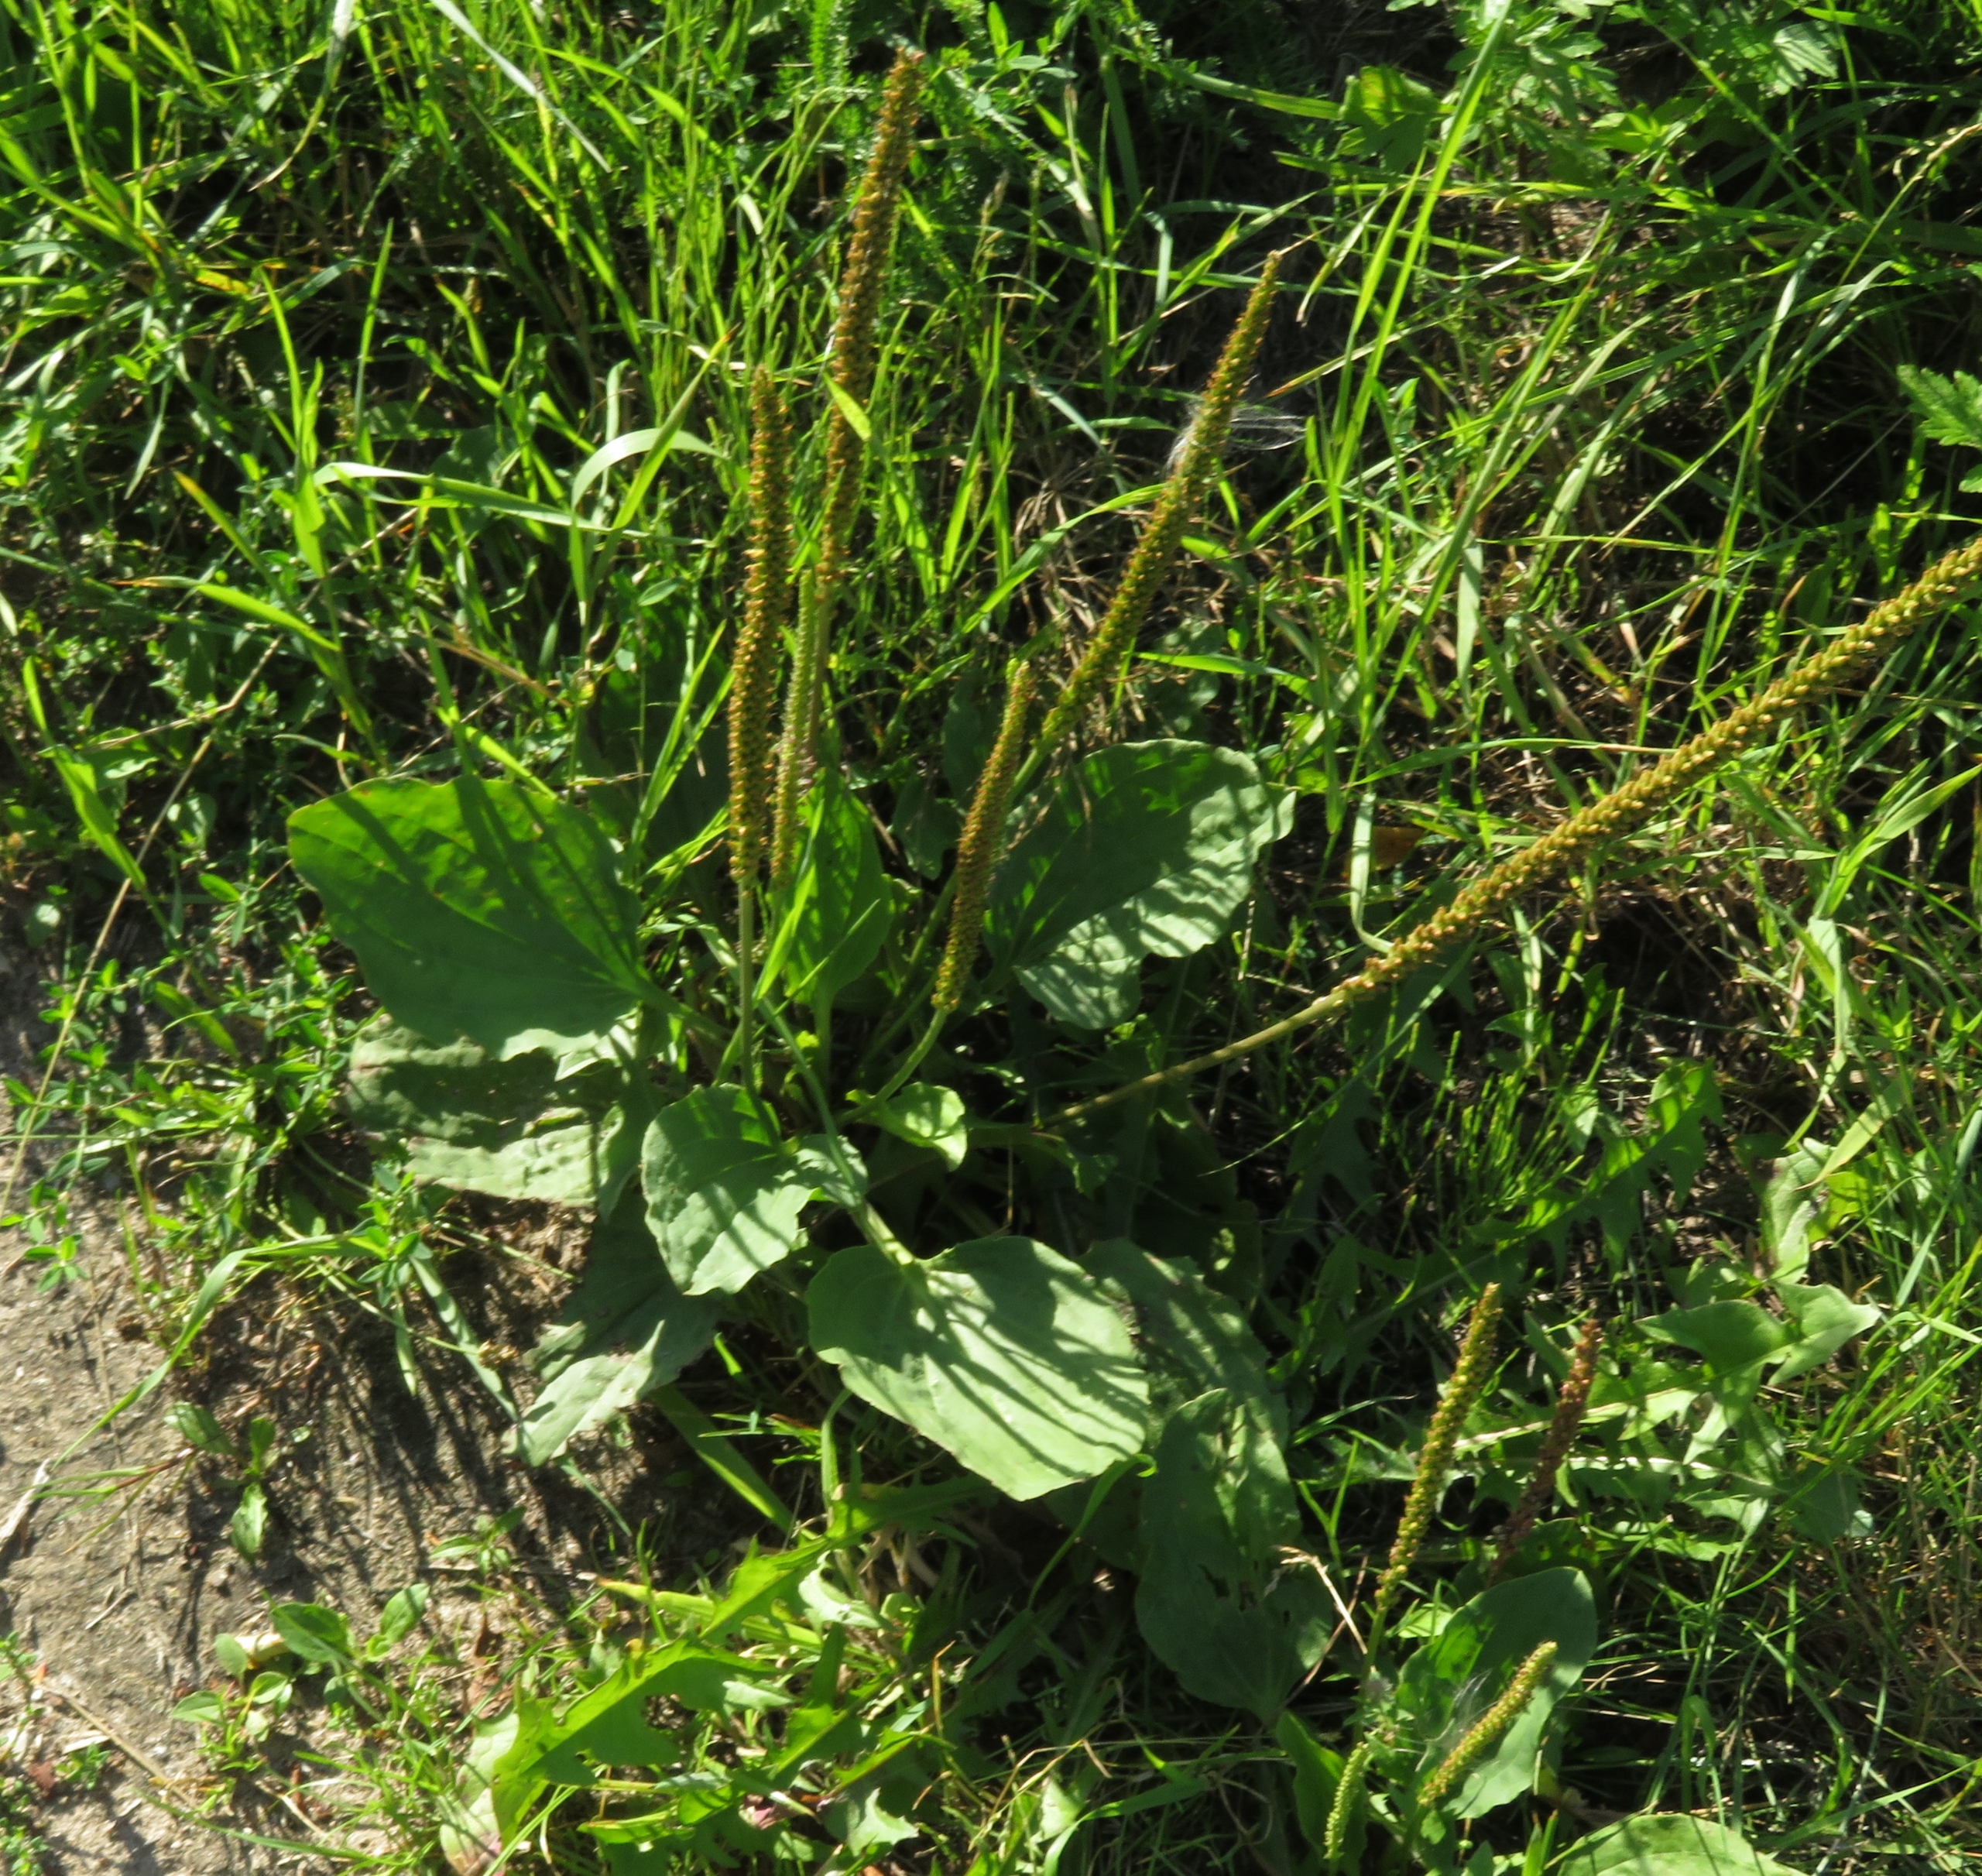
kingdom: Plantae
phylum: Tracheophyta
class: Magnoliopsida
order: Lamiales
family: Plantaginaceae
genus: Plantago
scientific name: Plantago major
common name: Glat vejbred
